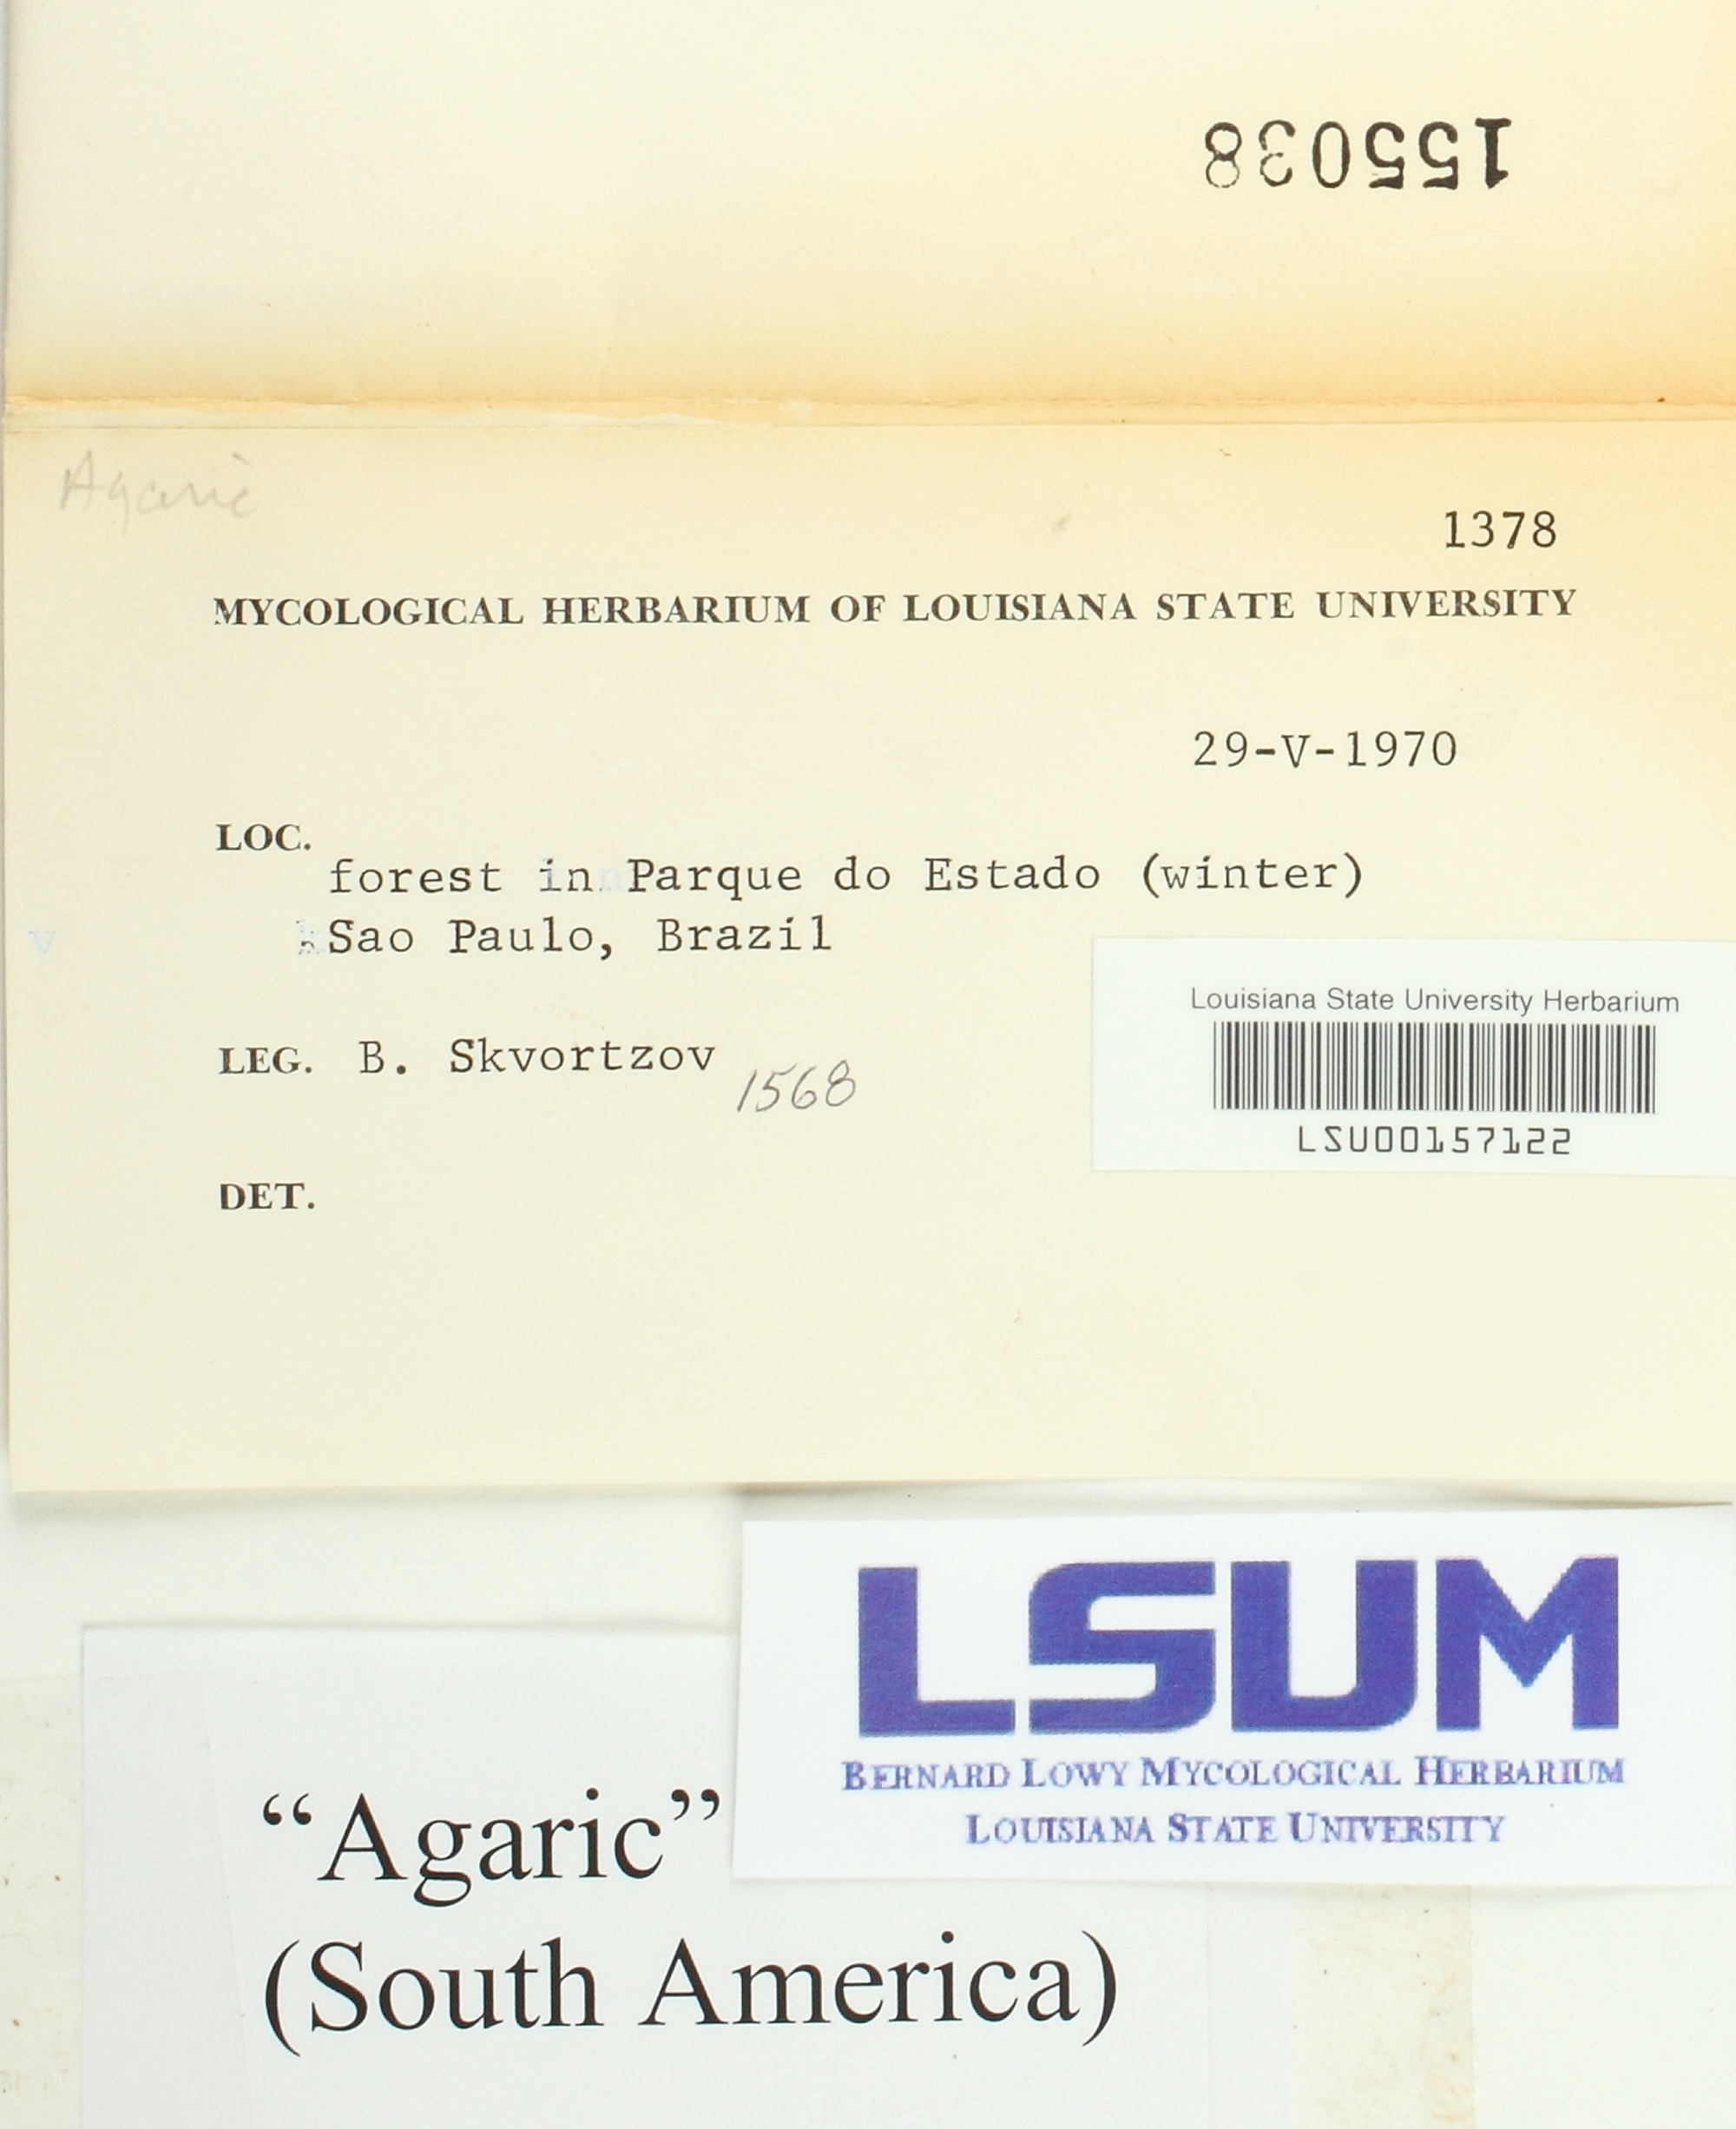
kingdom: Fungi
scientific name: Fungi
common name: Fungi
